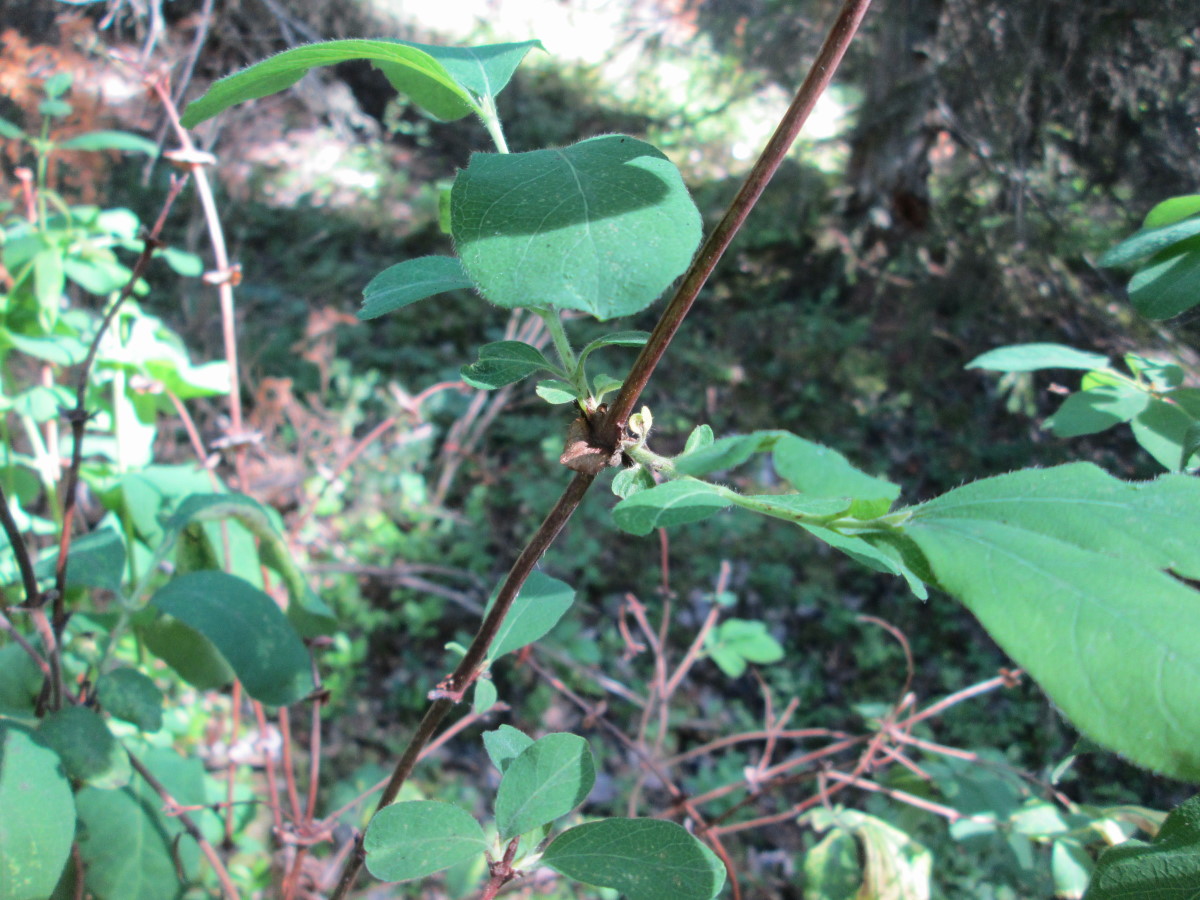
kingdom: Plantae
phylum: Tracheophyta
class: Magnoliopsida
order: Dipsacales
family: Caprifoliaceae
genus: Lonicera
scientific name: Lonicera caerulea
